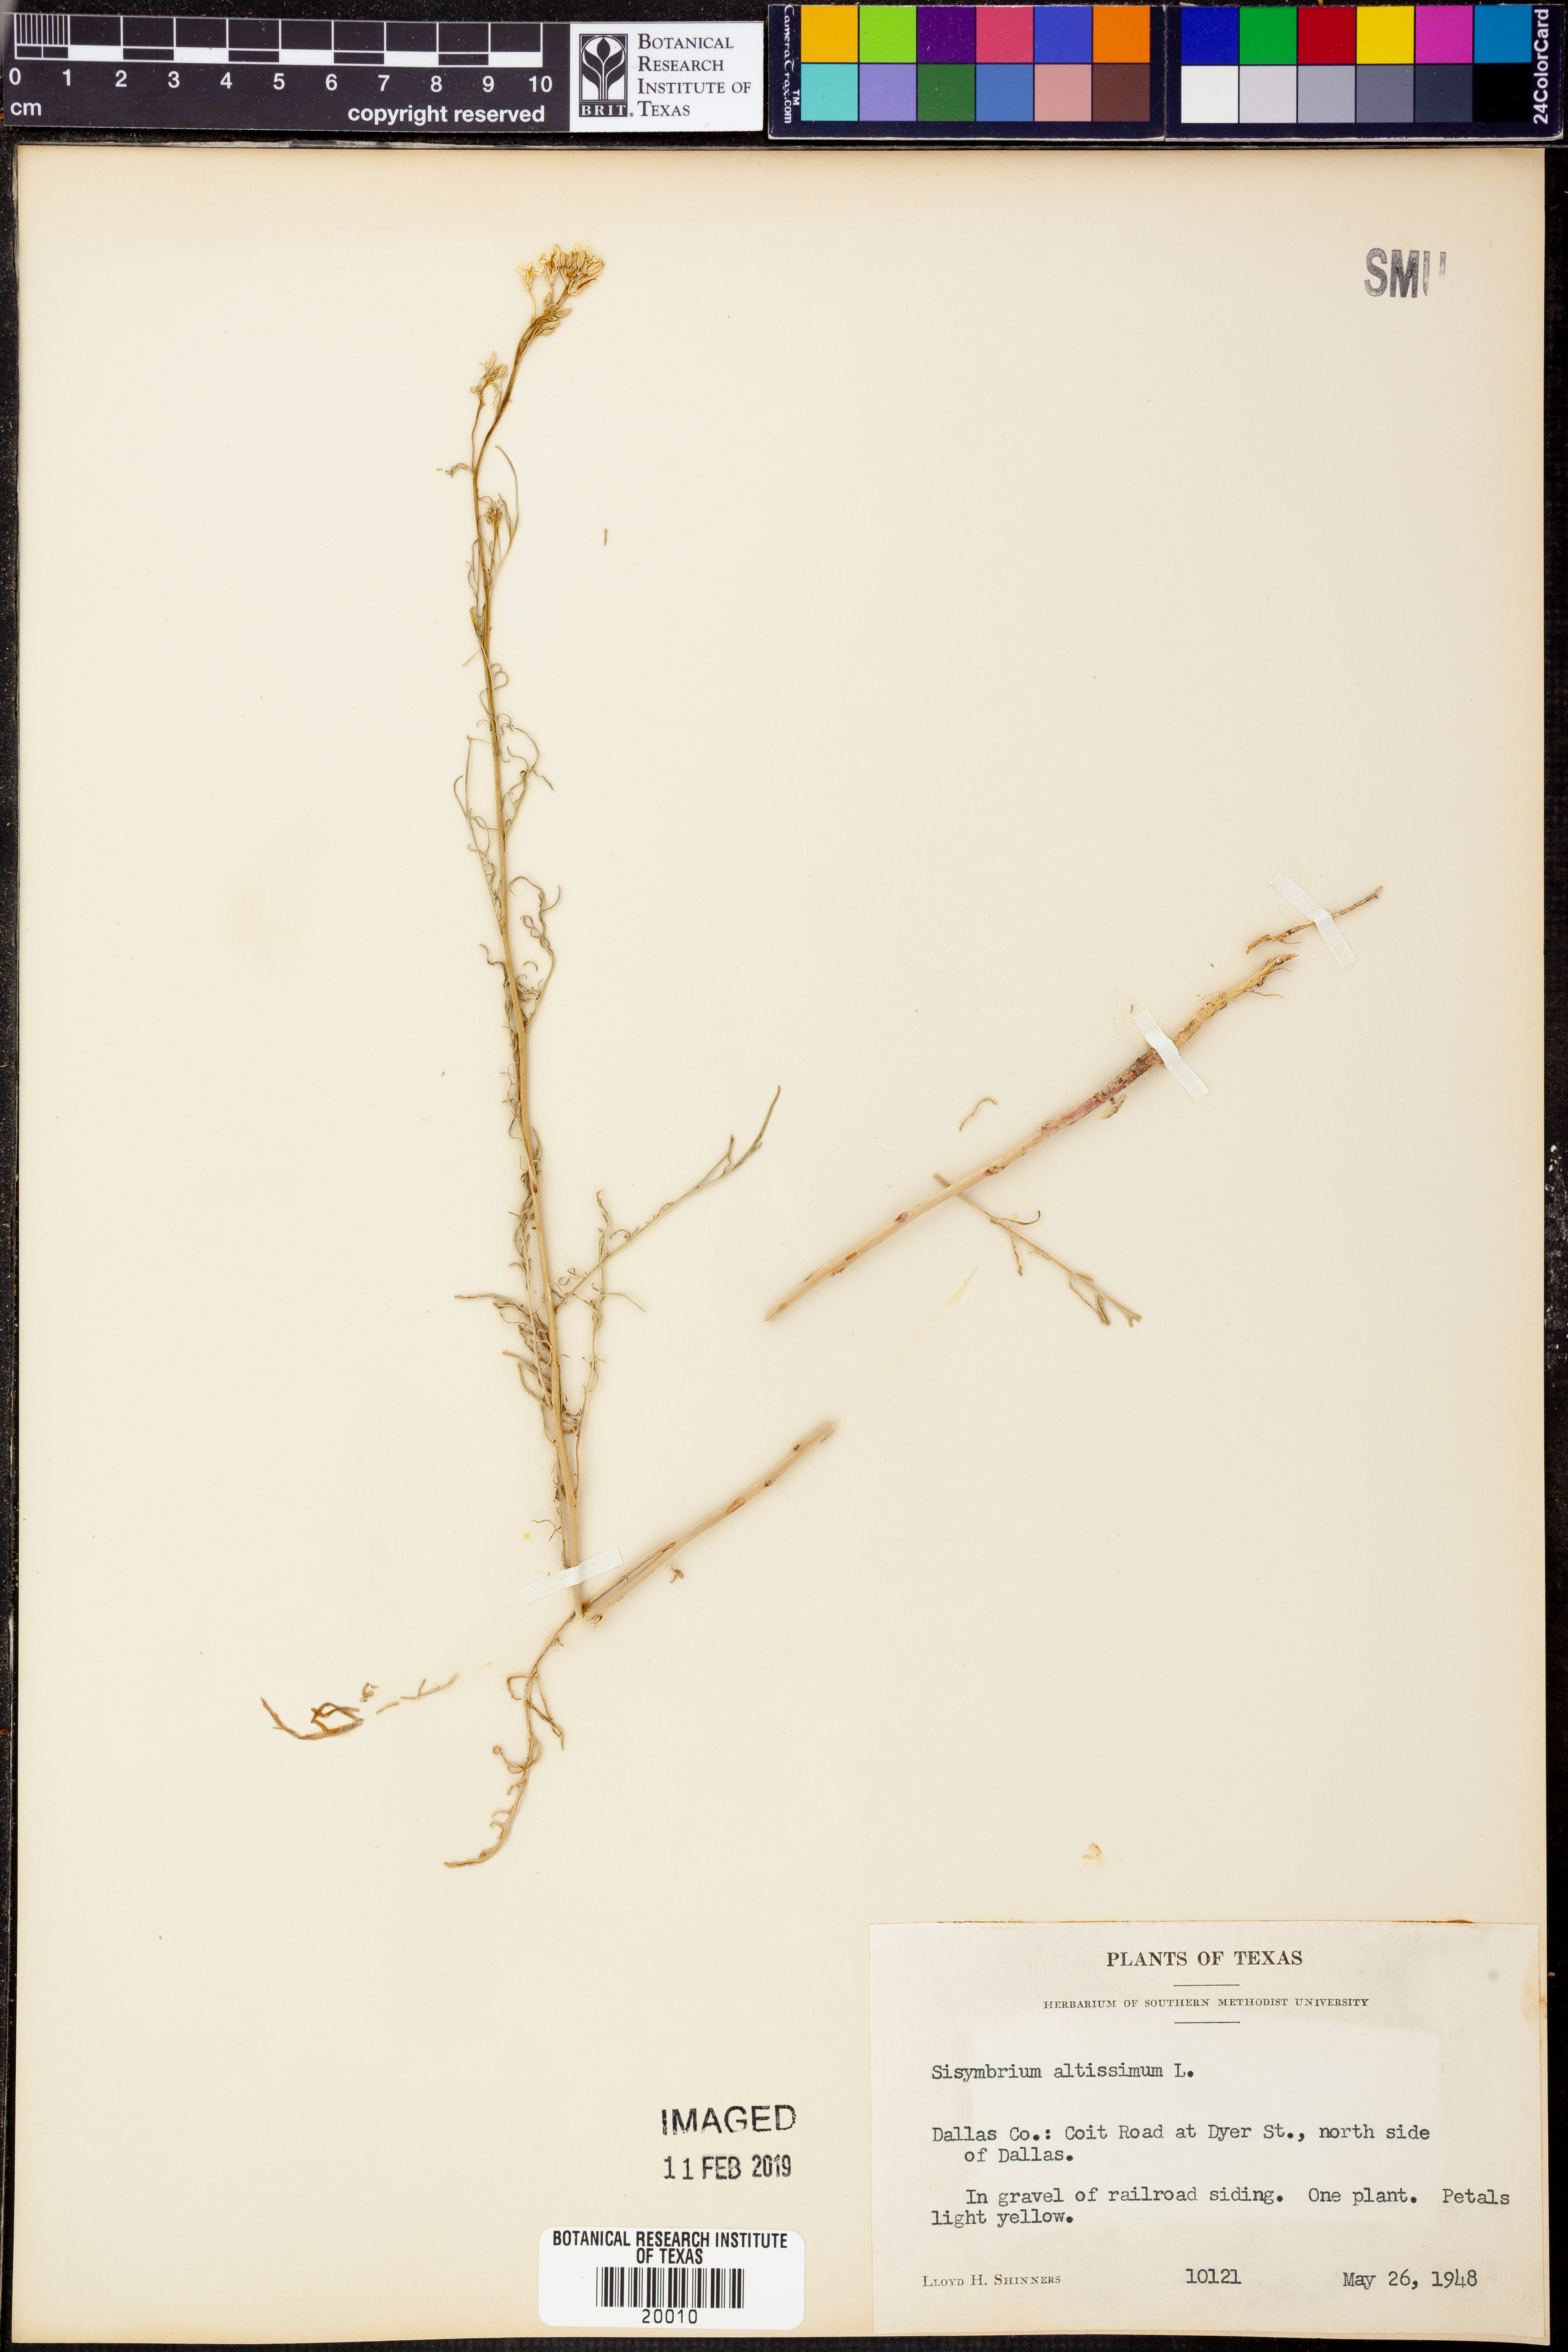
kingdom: Plantae
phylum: Tracheophyta
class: Magnoliopsida
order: Brassicales
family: Brassicaceae
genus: Sisymbrium
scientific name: Sisymbrium altissimum
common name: Tall rocket
